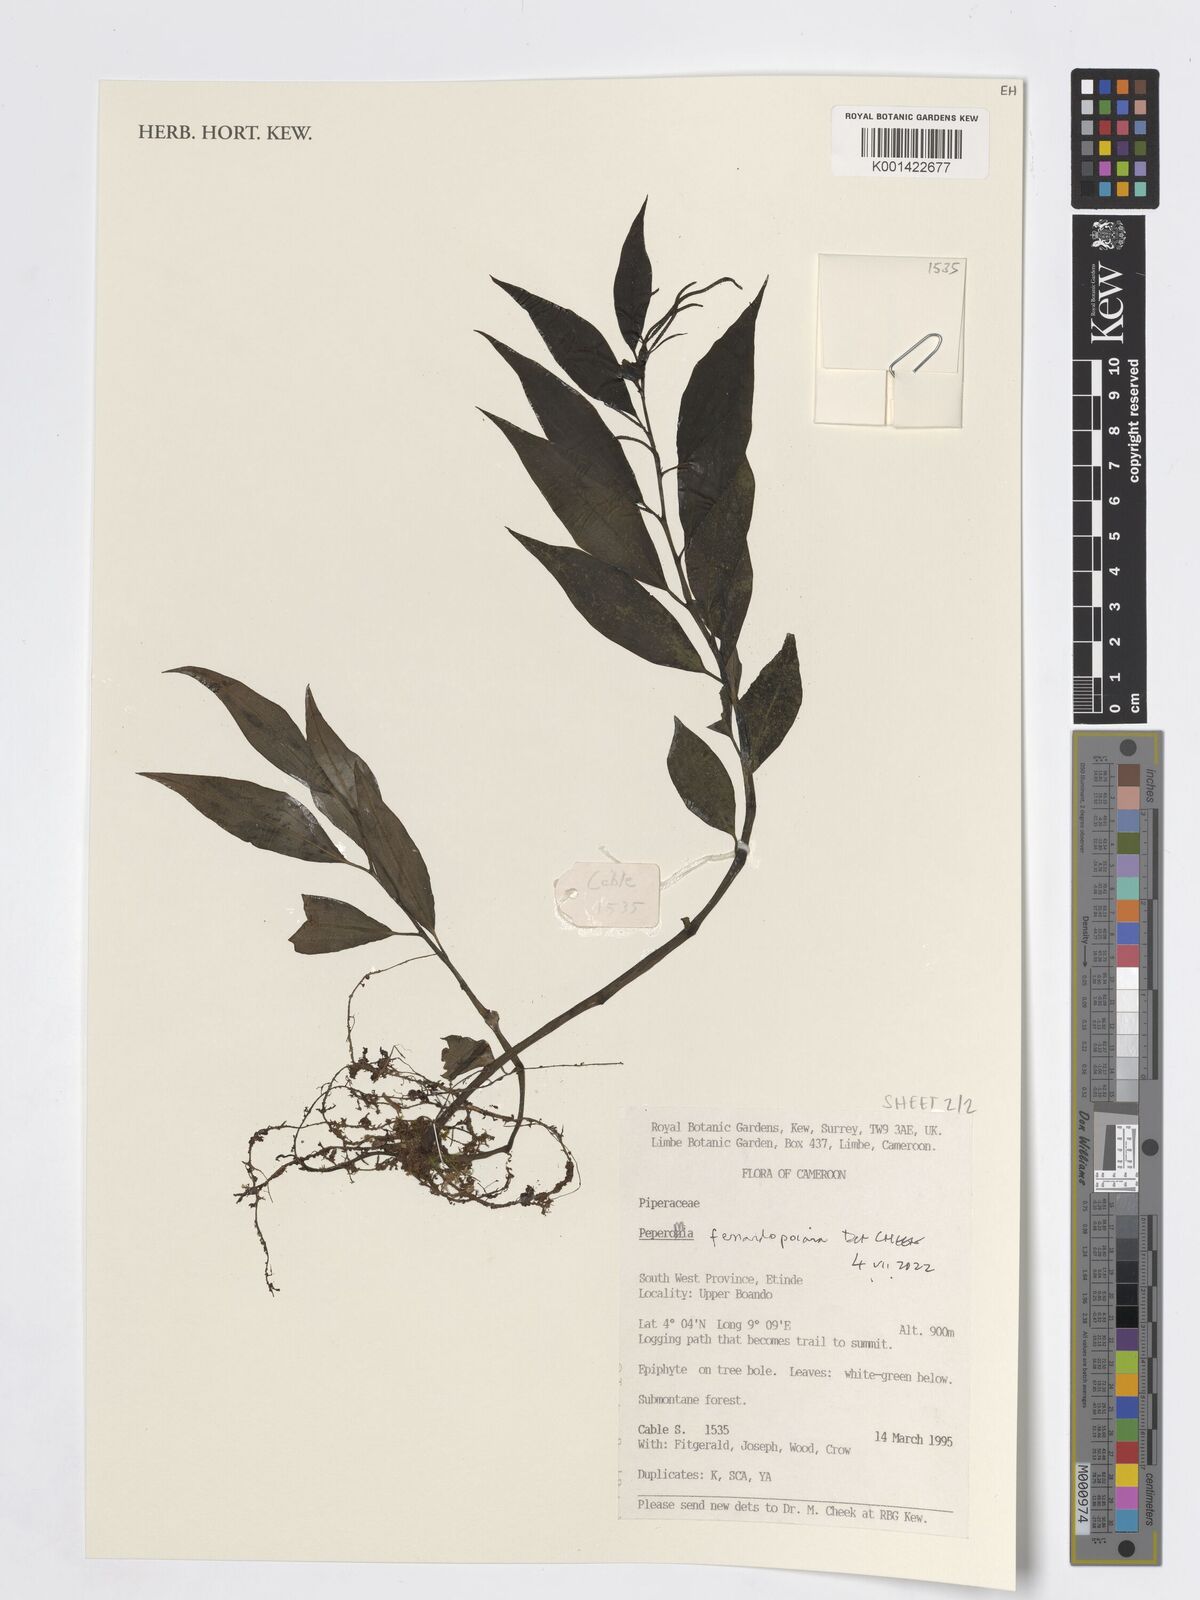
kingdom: Plantae
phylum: Tracheophyta
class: Magnoliopsida
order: Piperales
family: Piperaceae
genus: Peperomia
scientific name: Peperomia fernandopoiana
